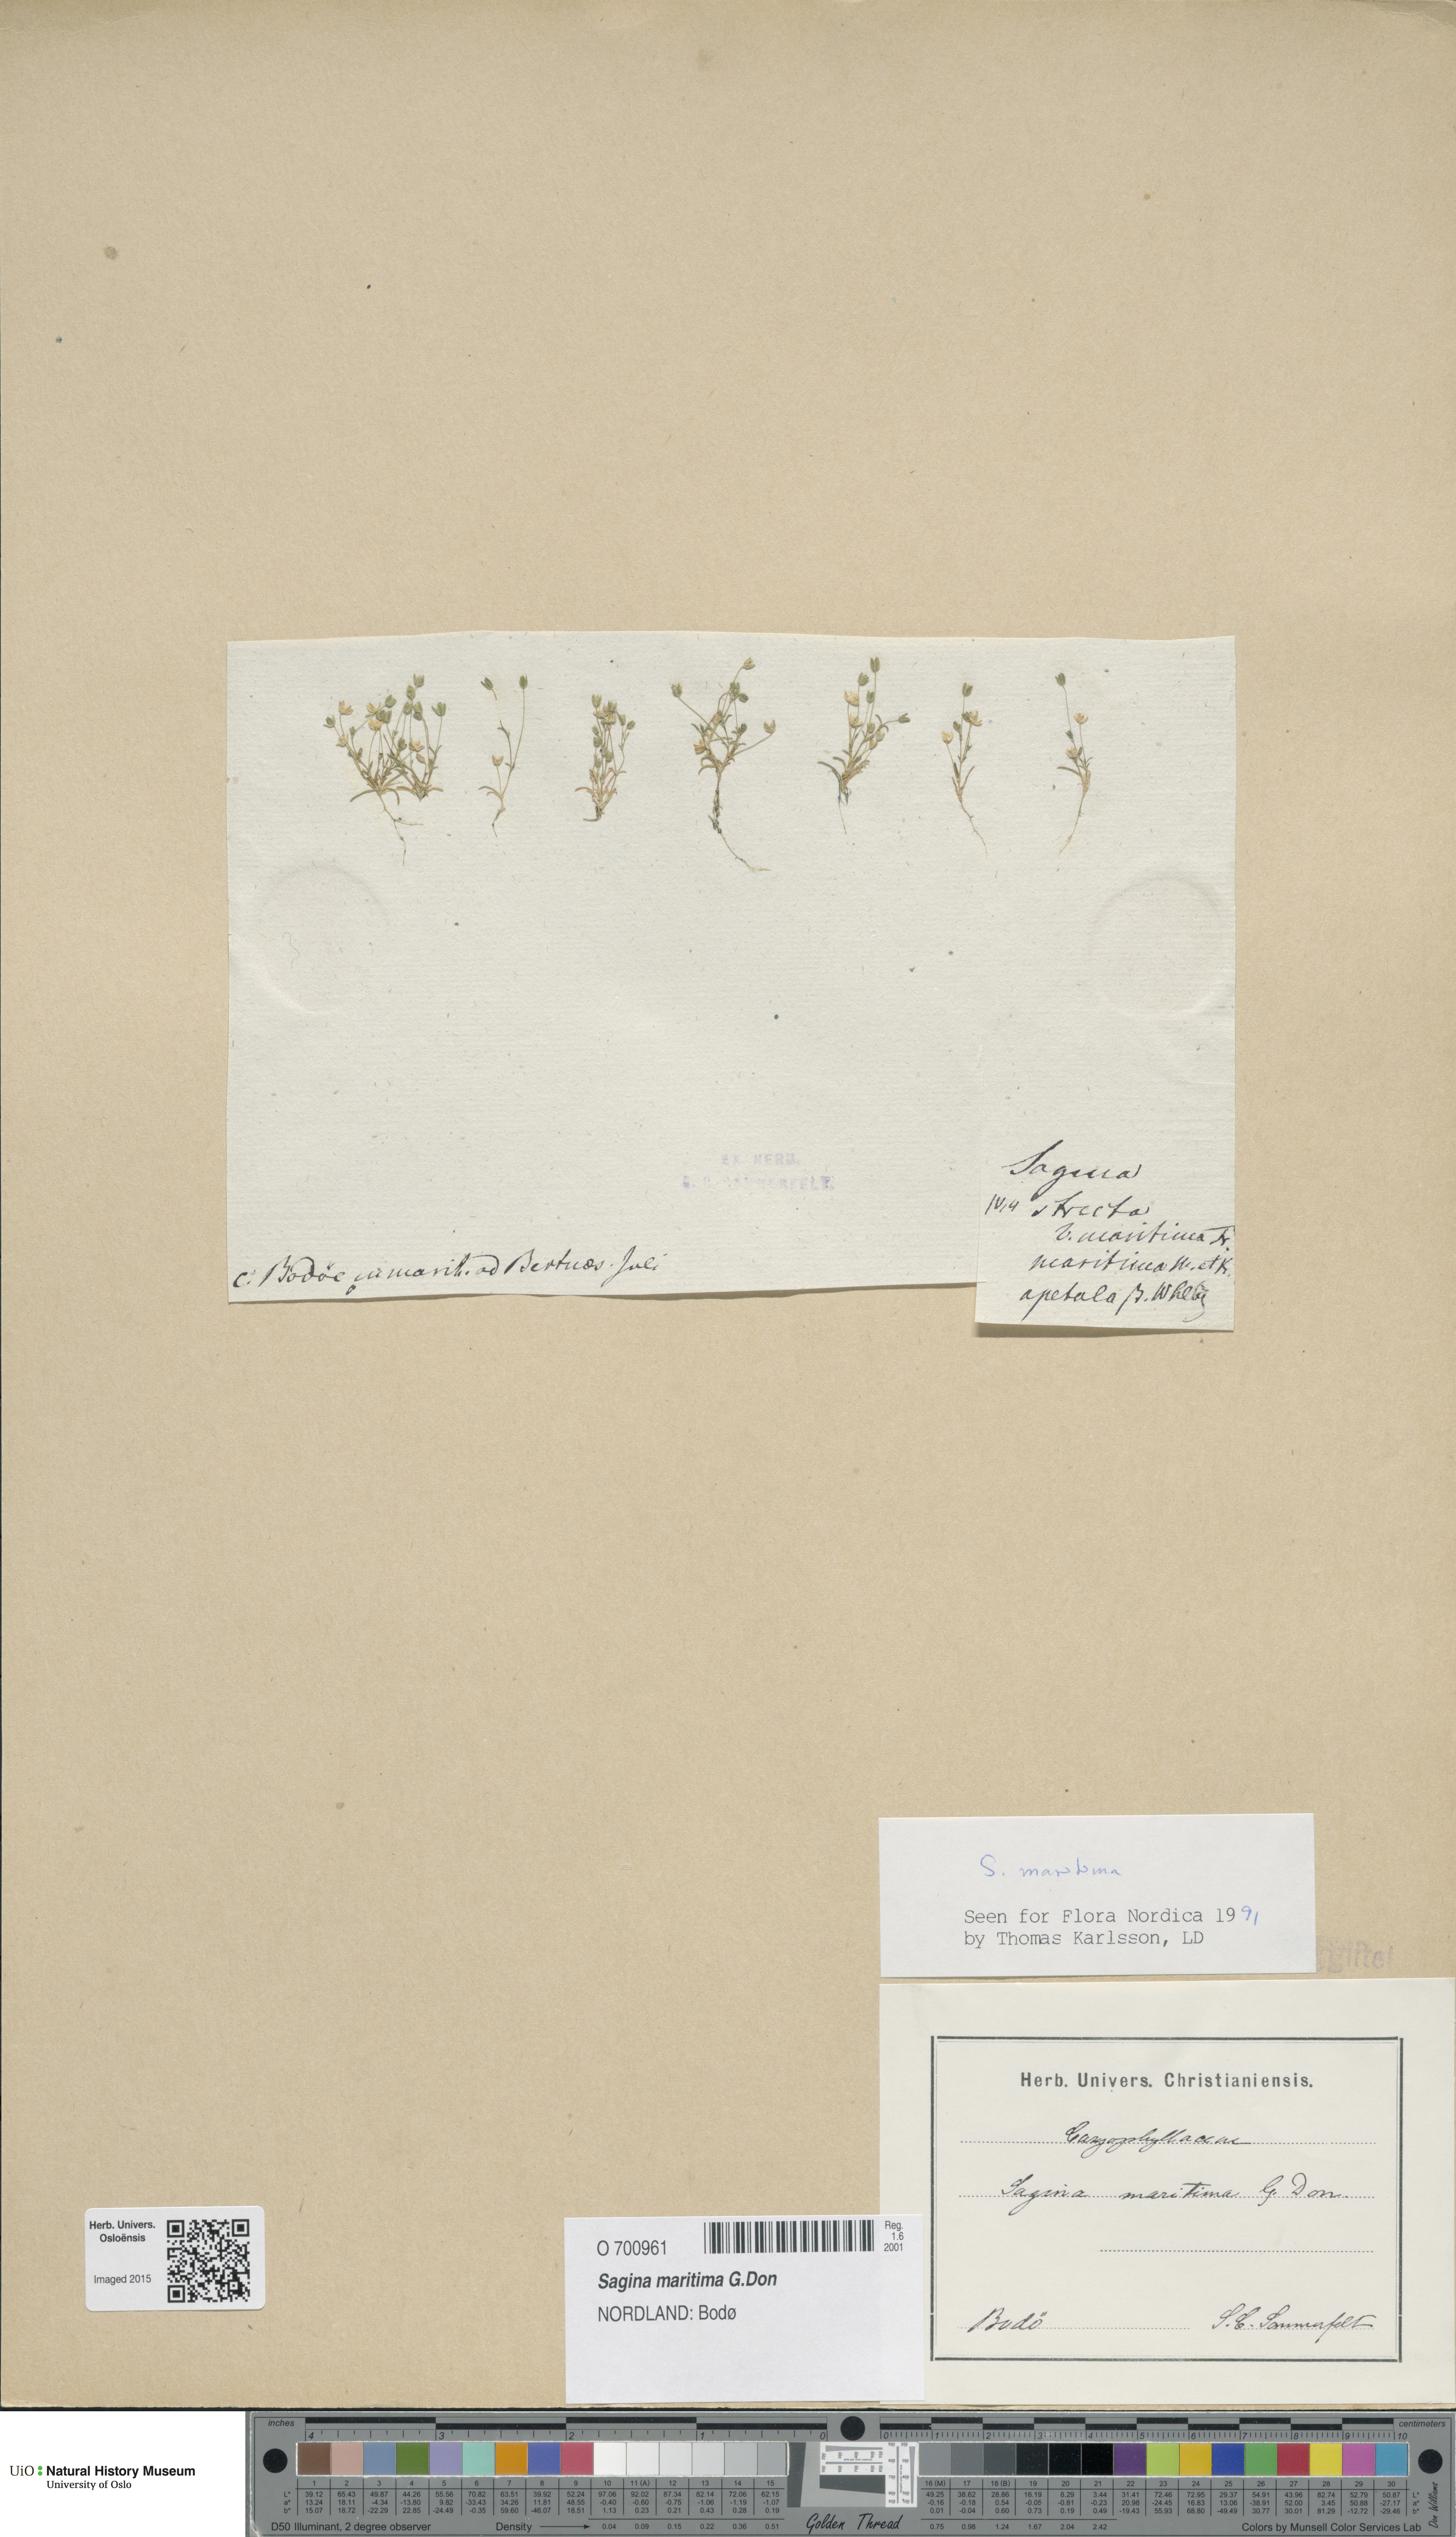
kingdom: Plantae
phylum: Tracheophyta
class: Magnoliopsida
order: Caryophyllales
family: Caryophyllaceae
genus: Sagina
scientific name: Sagina maritima
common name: Sea pearlwort
